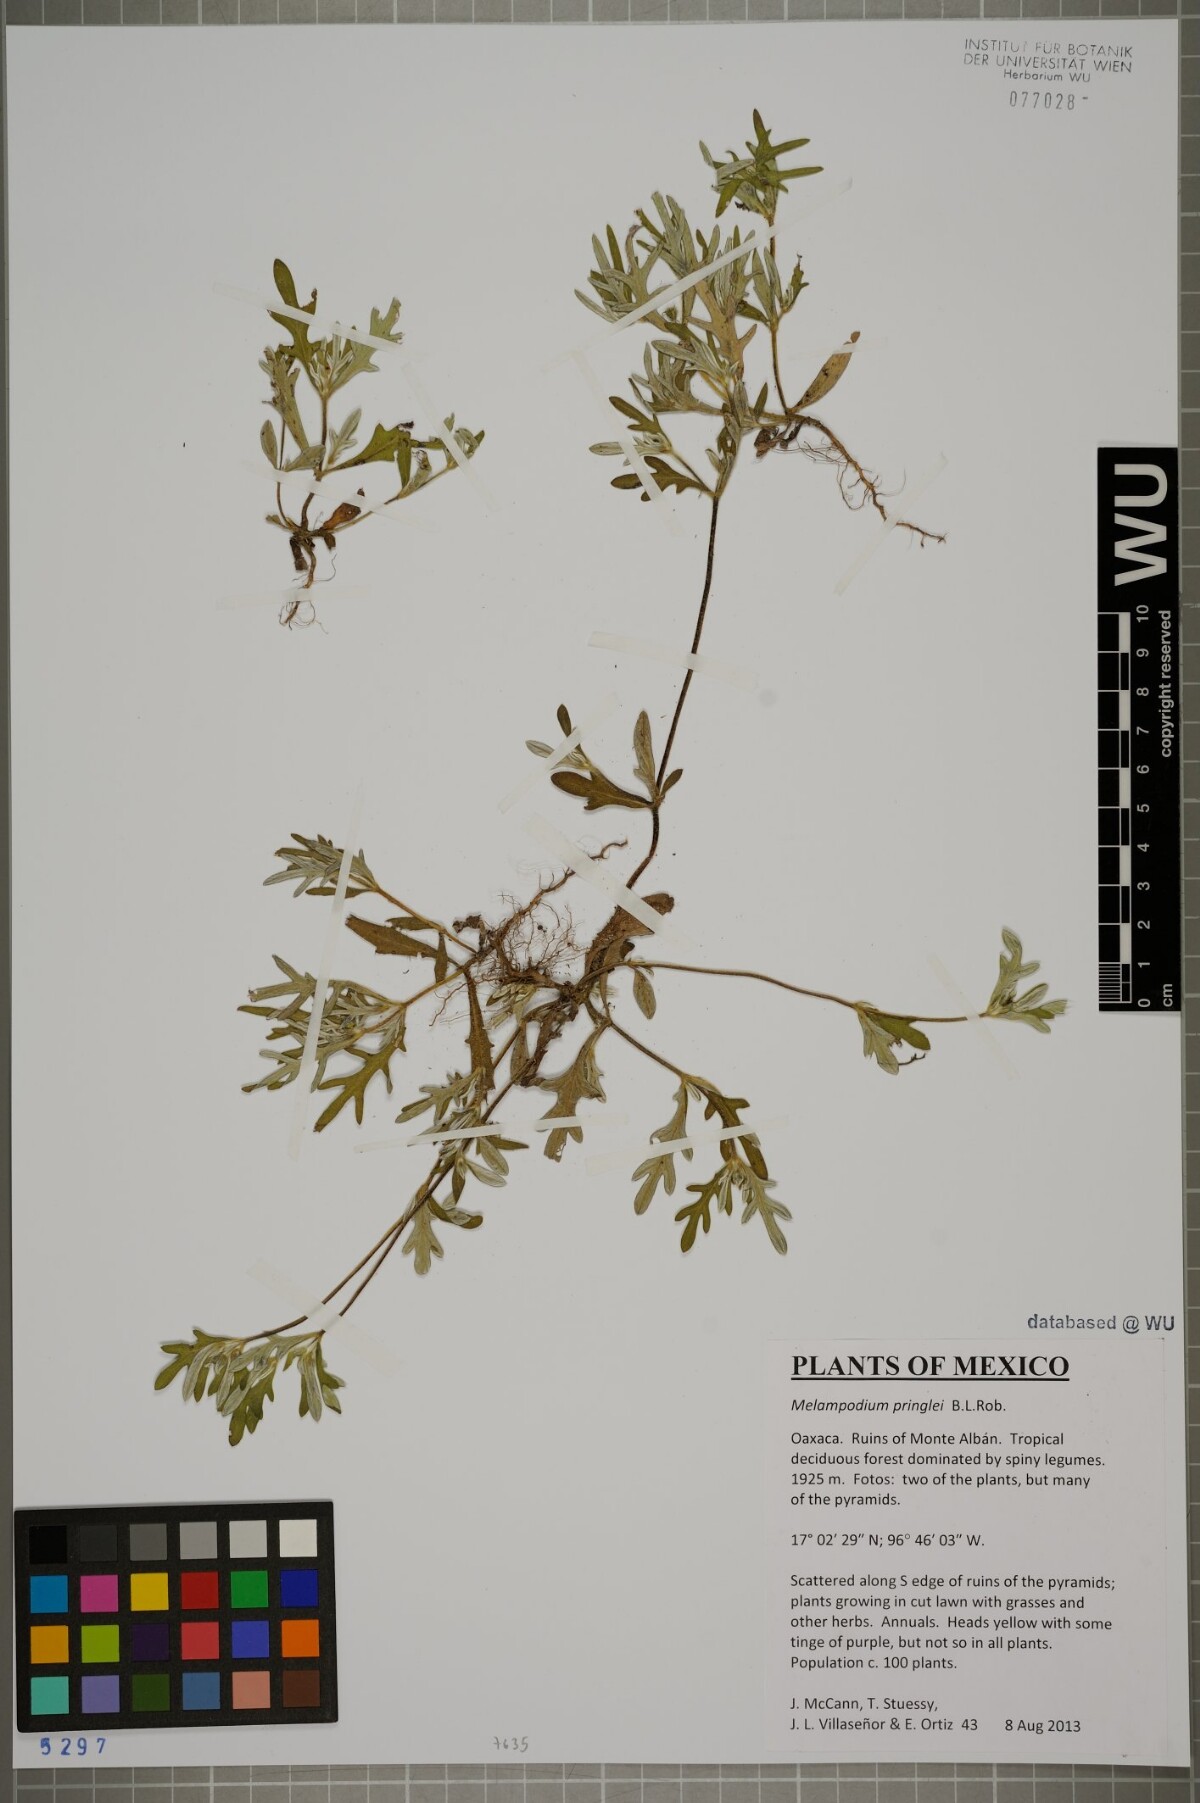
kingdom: Plantae
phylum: Tracheophyta
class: Magnoliopsida
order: Asterales
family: Asteraceae
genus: Melampodium
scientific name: Melampodium pringlei
